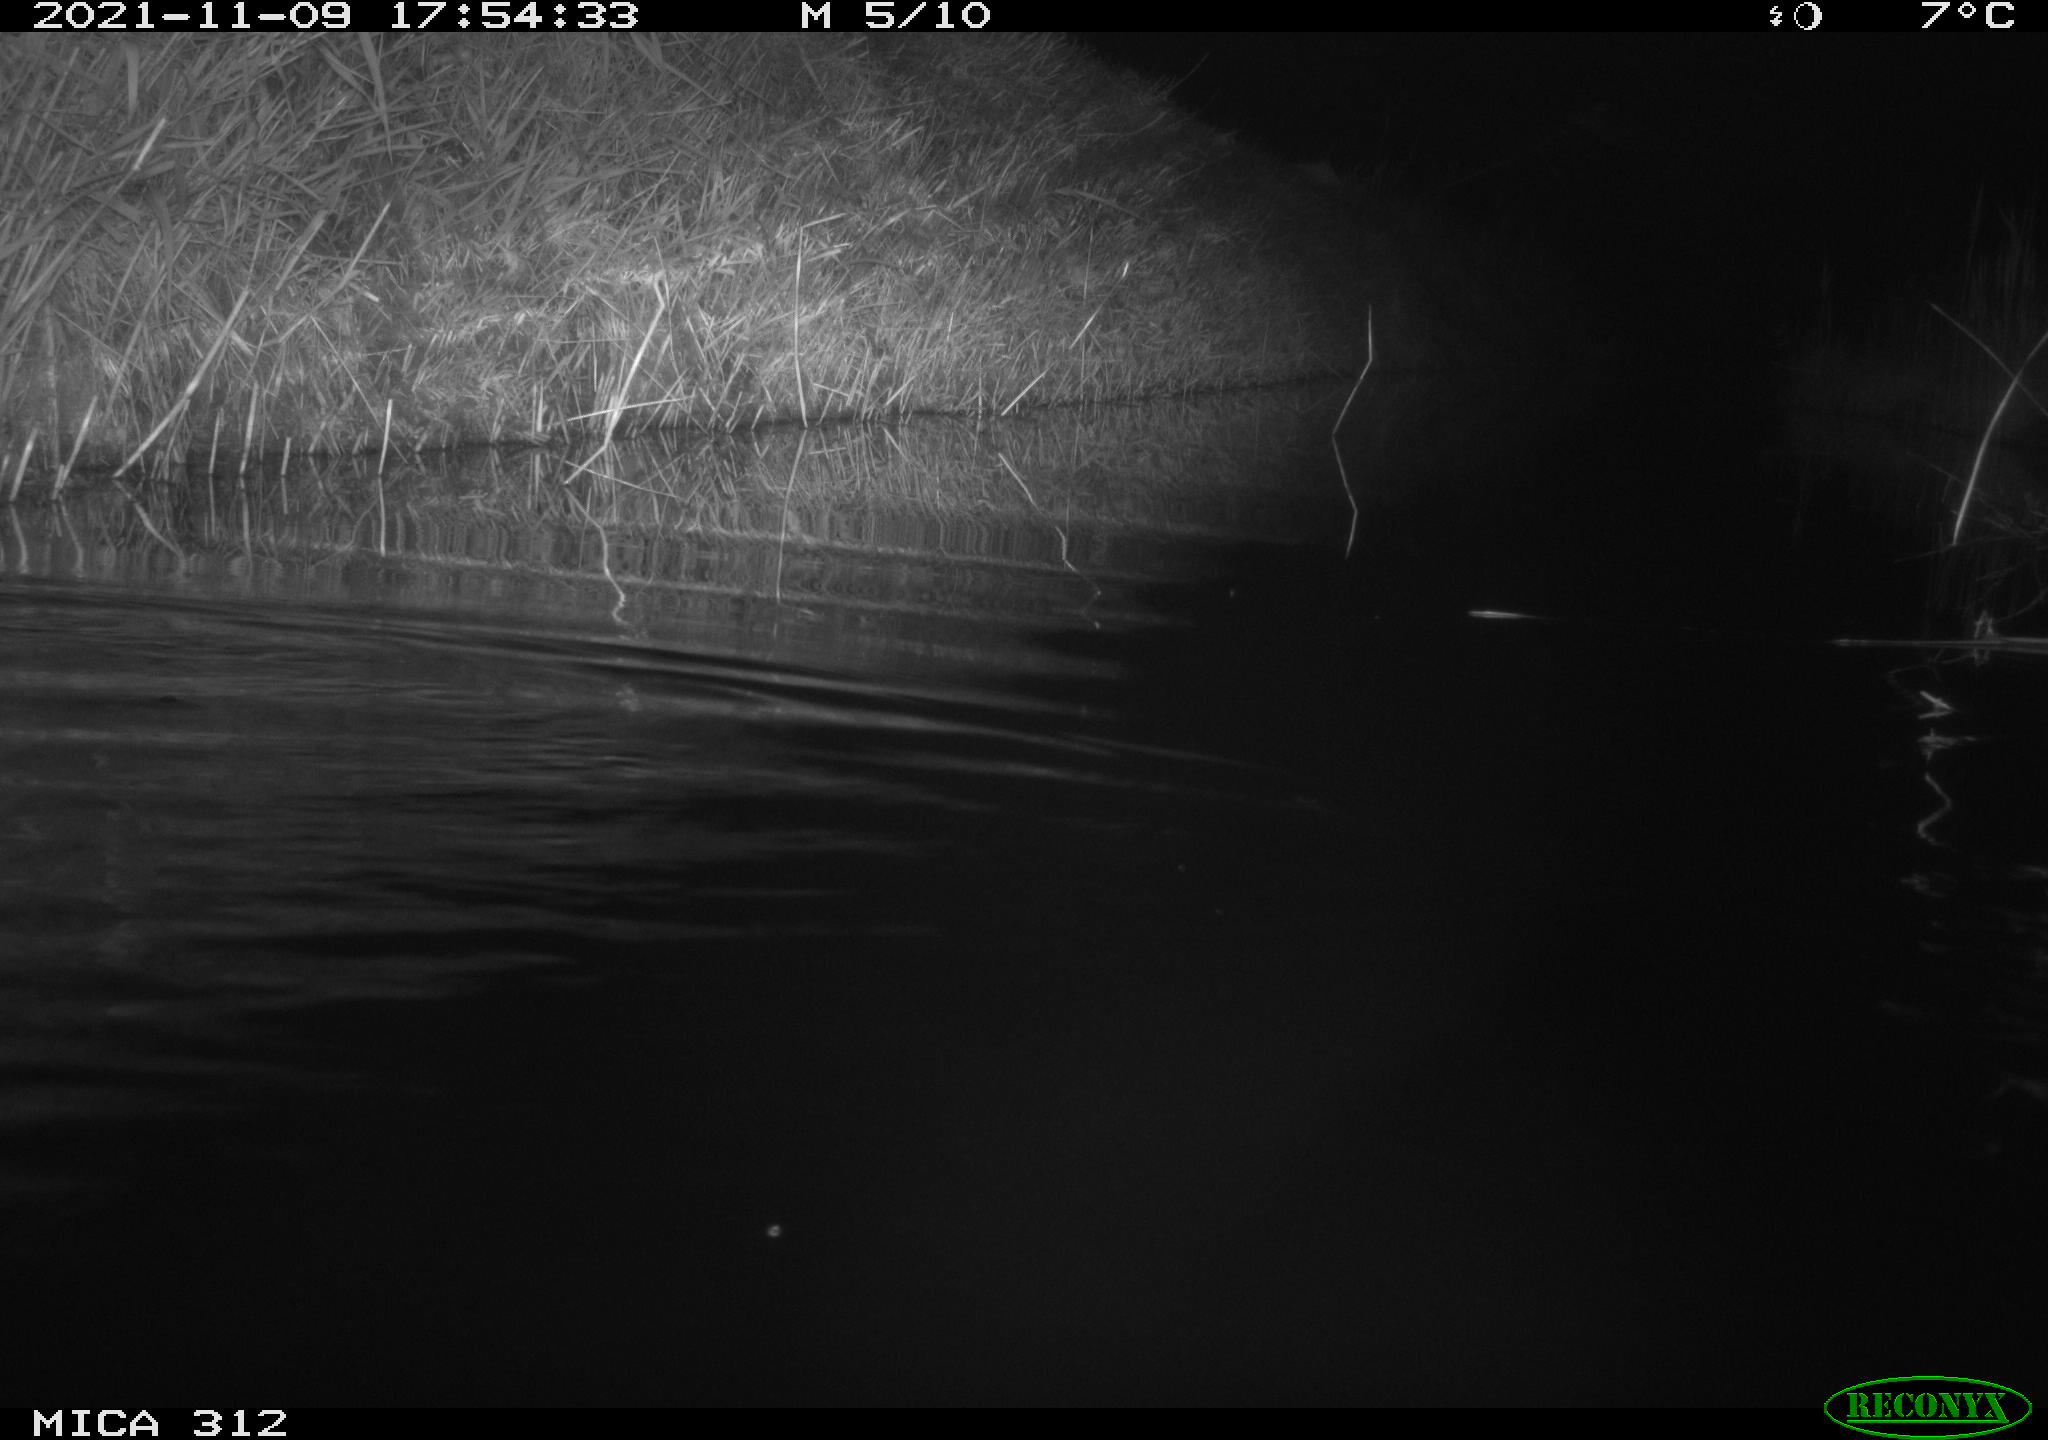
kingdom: Animalia
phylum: Chordata
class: Mammalia
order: Rodentia
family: Muridae
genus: Rattus
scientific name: Rattus norvegicus
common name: Brown rat
